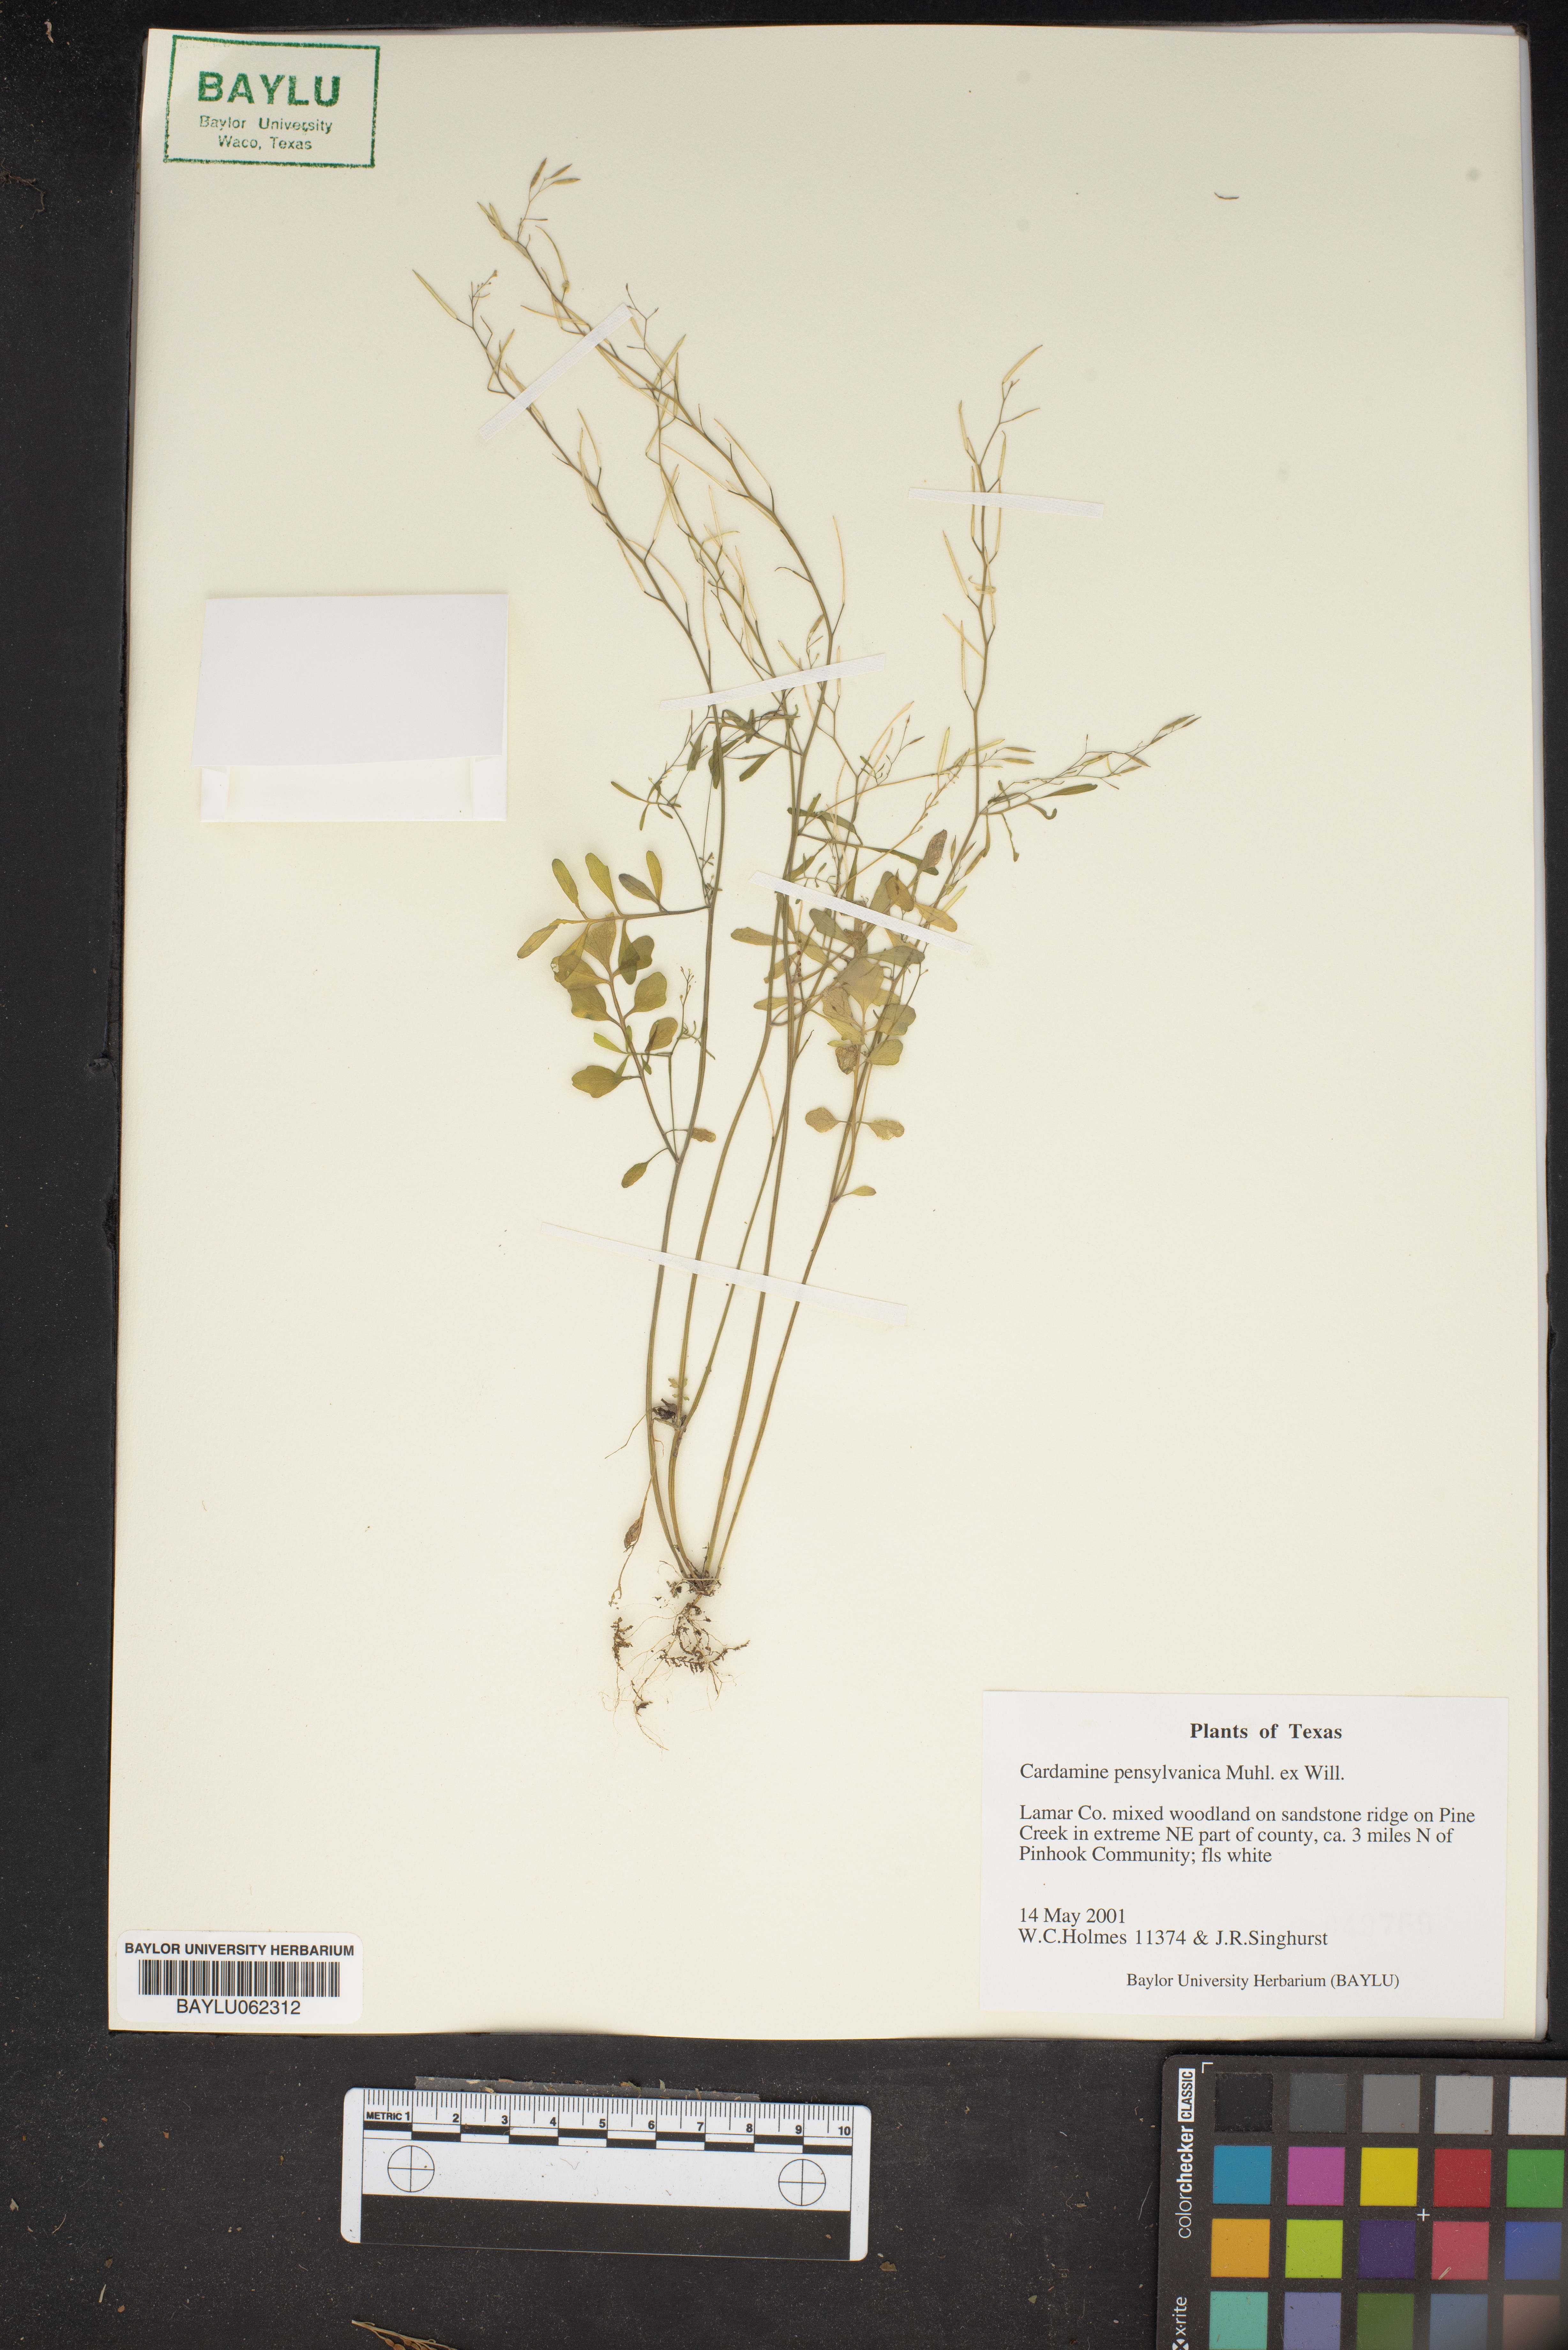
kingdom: Plantae
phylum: Tracheophyta
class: Magnoliopsida
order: Brassicales
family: Brassicaceae
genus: Cardamine
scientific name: Cardamine pensylvanica
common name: Pennsylvania bittercress
